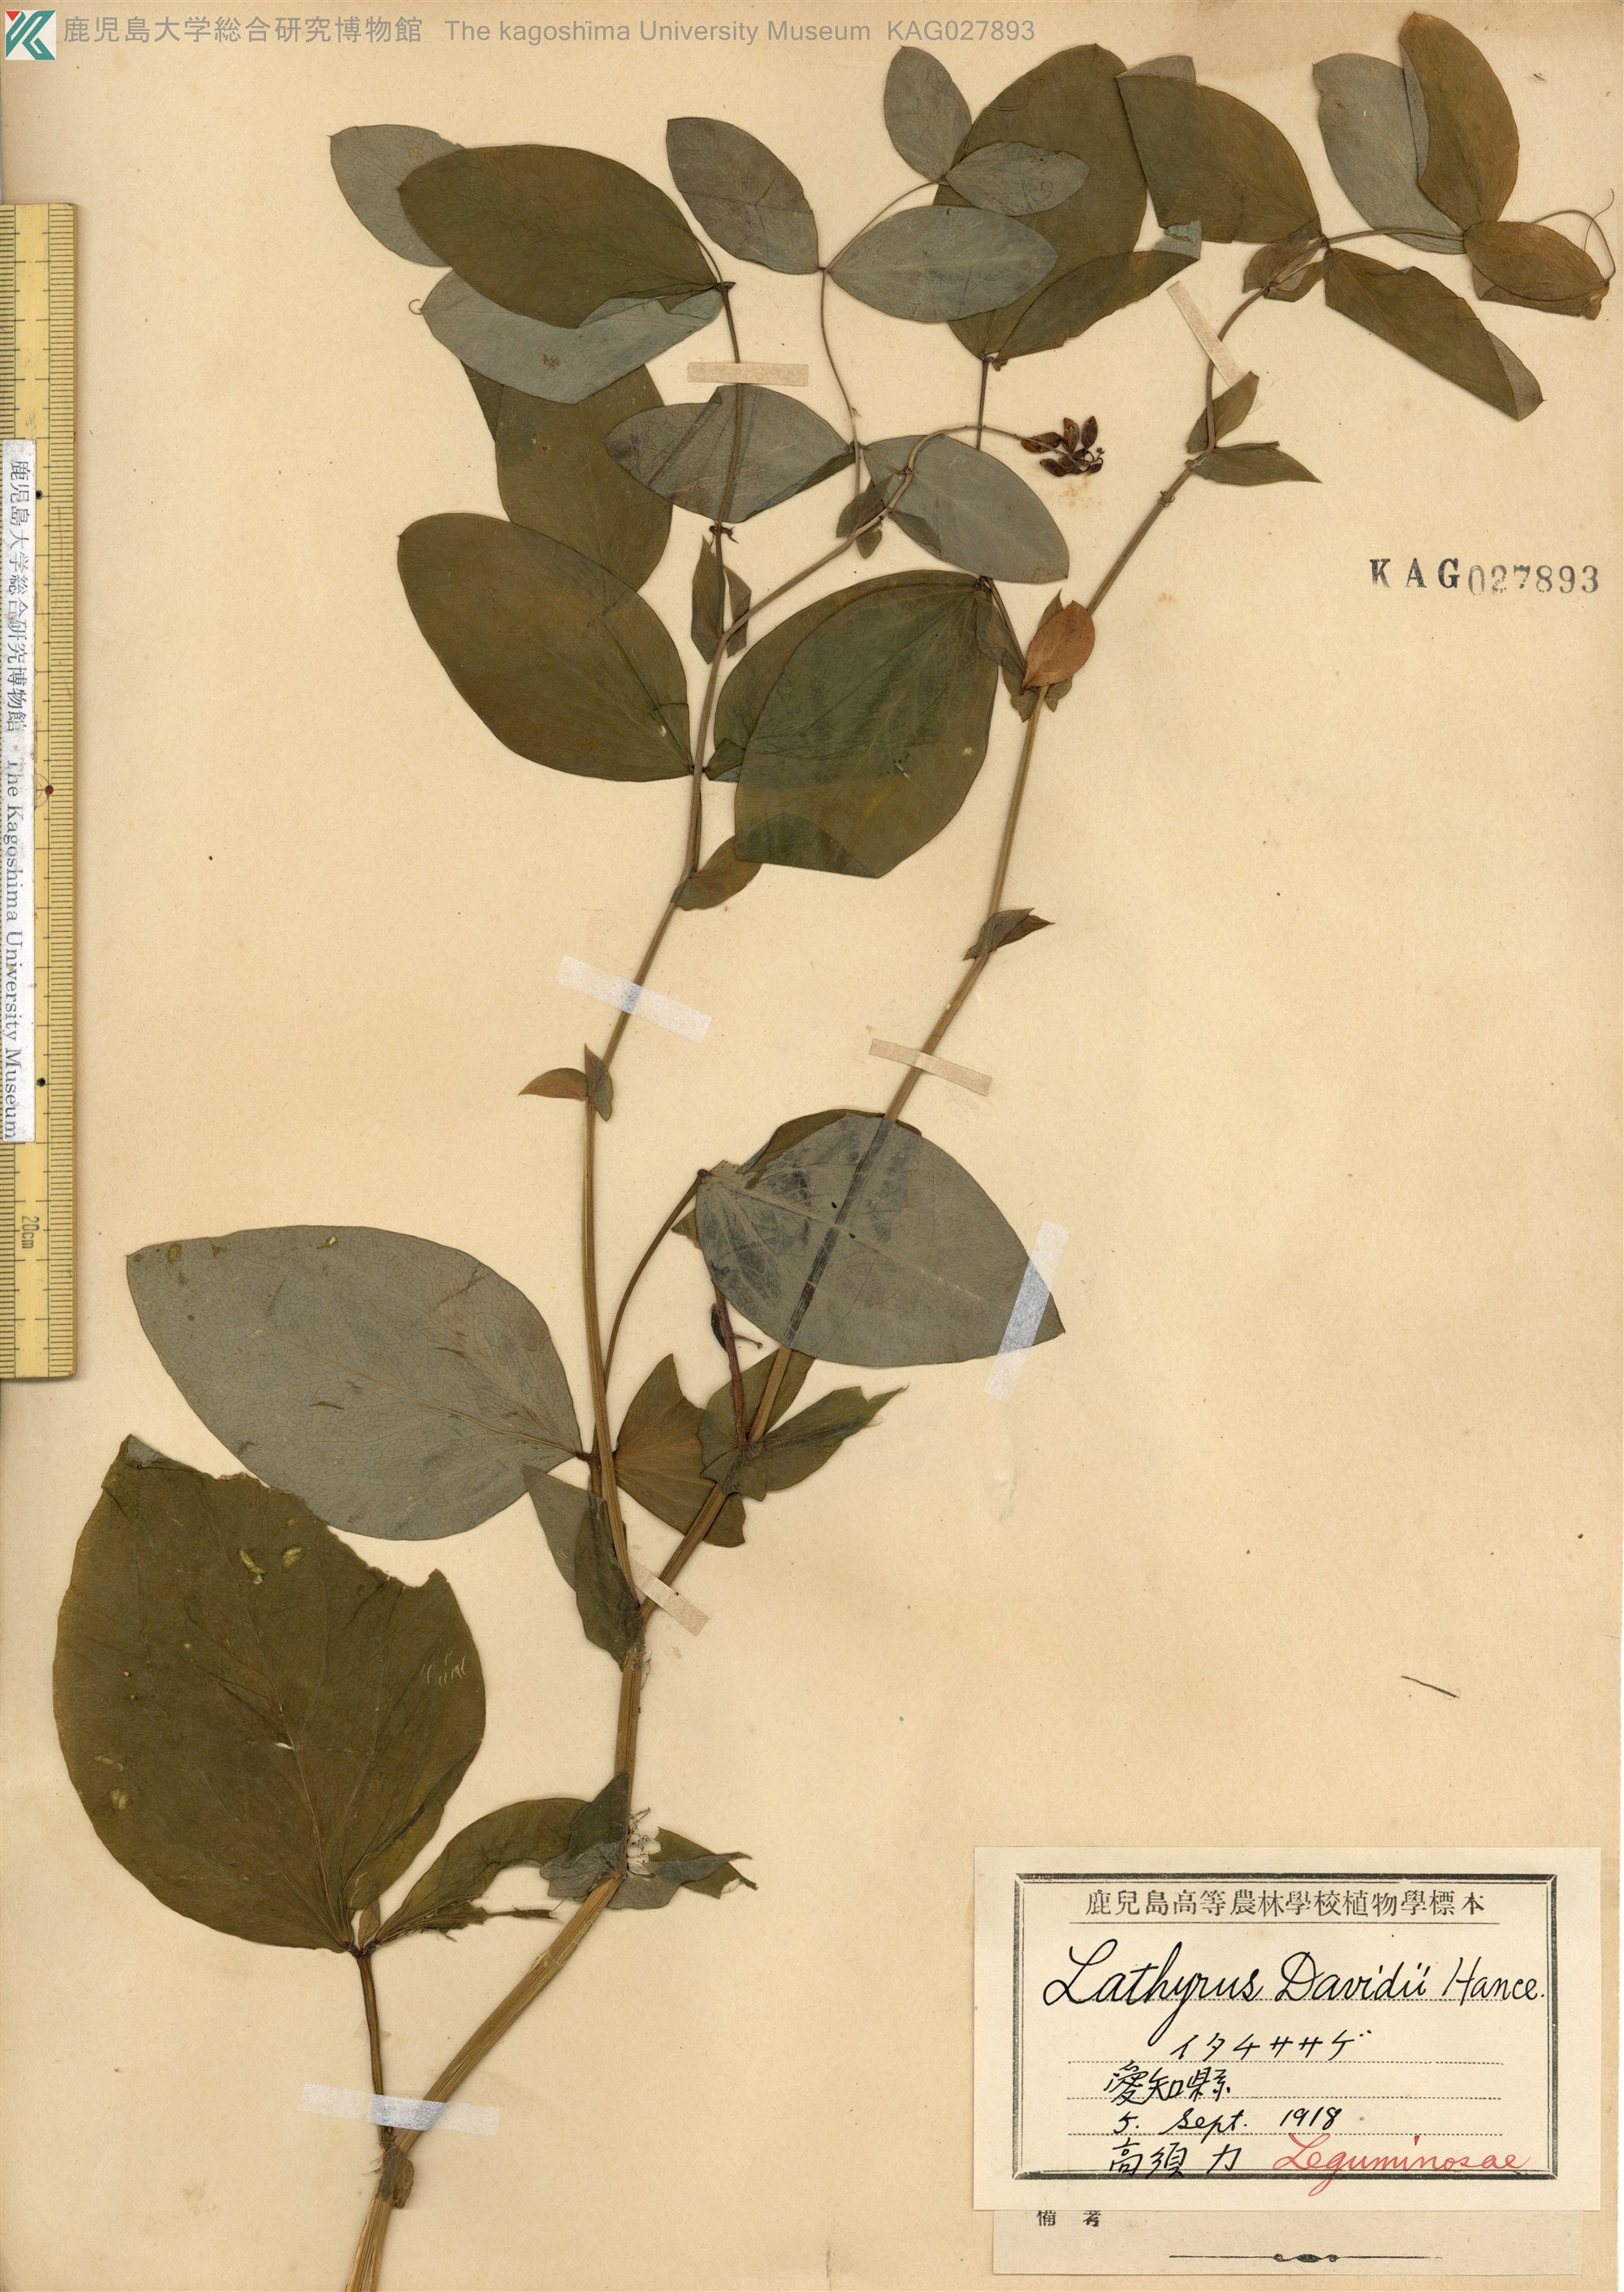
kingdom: Plantae
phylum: Tracheophyta
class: Magnoliopsida
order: Fabales
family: Fabaceae
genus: Lathyrus
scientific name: Lathyrus davidii
